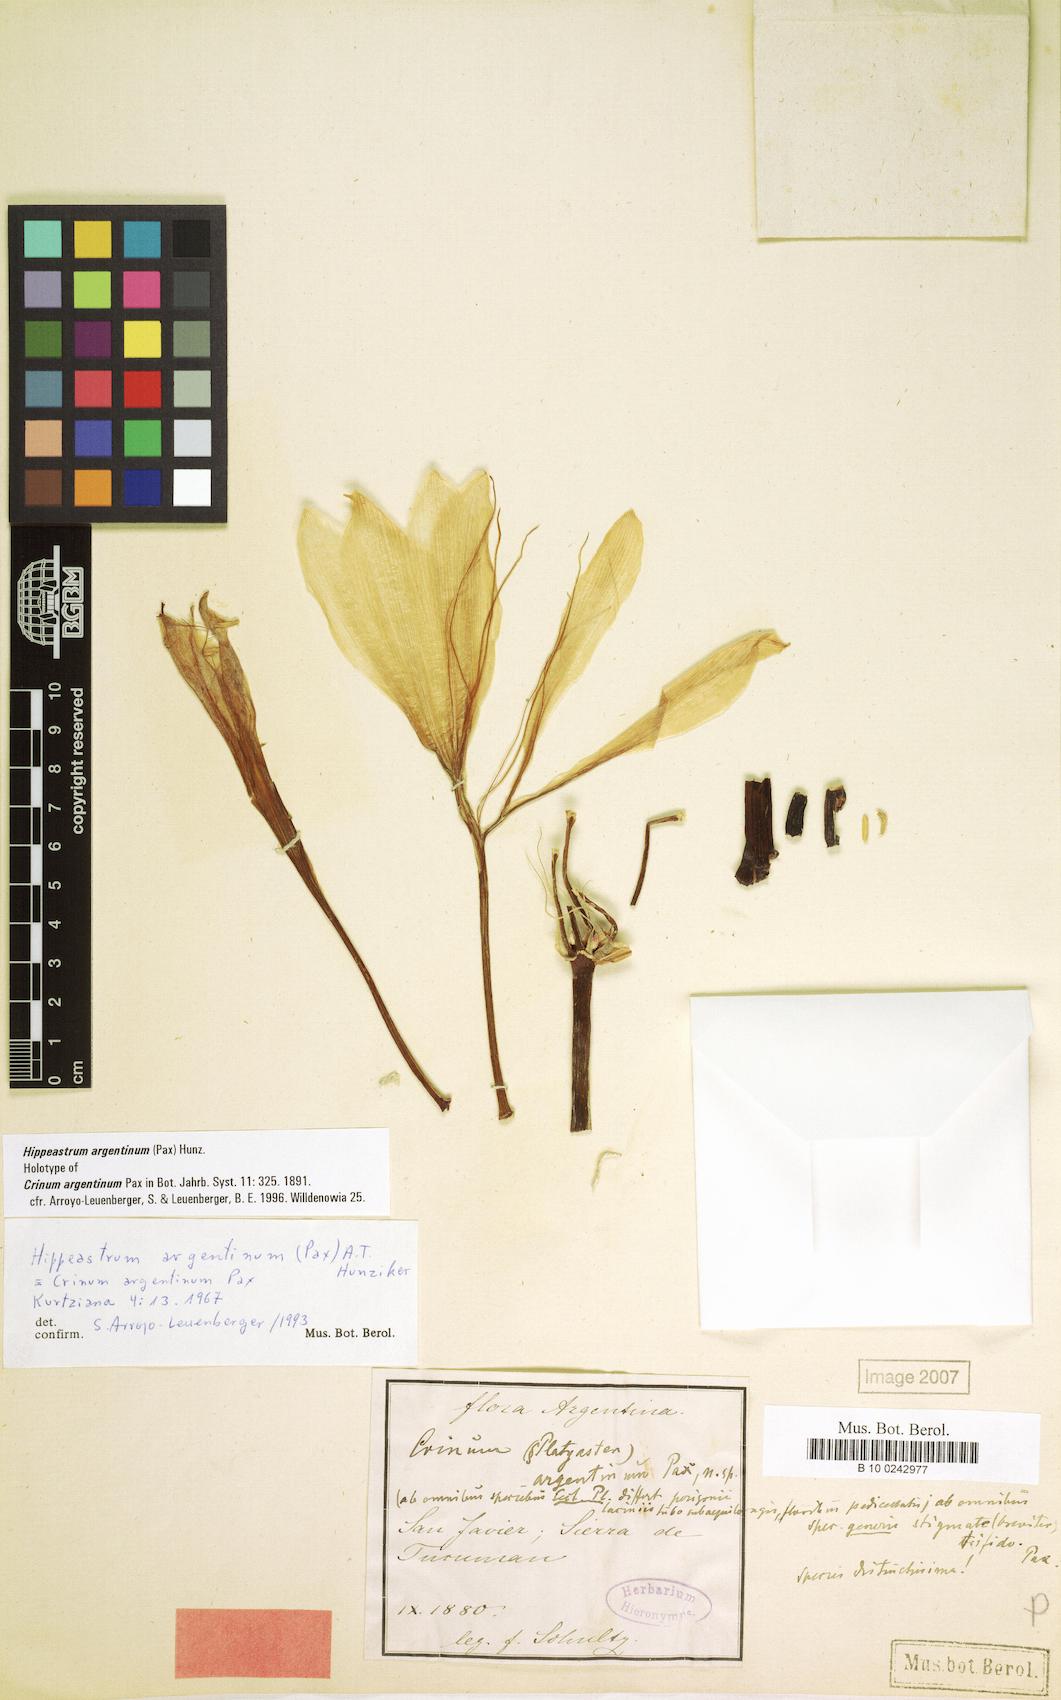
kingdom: Plantae
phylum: Tracheophyta
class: Liliopsida
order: Asparagales
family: Amaryllidaceae
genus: Hippeastrum
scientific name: Hippeastrum argentinum
